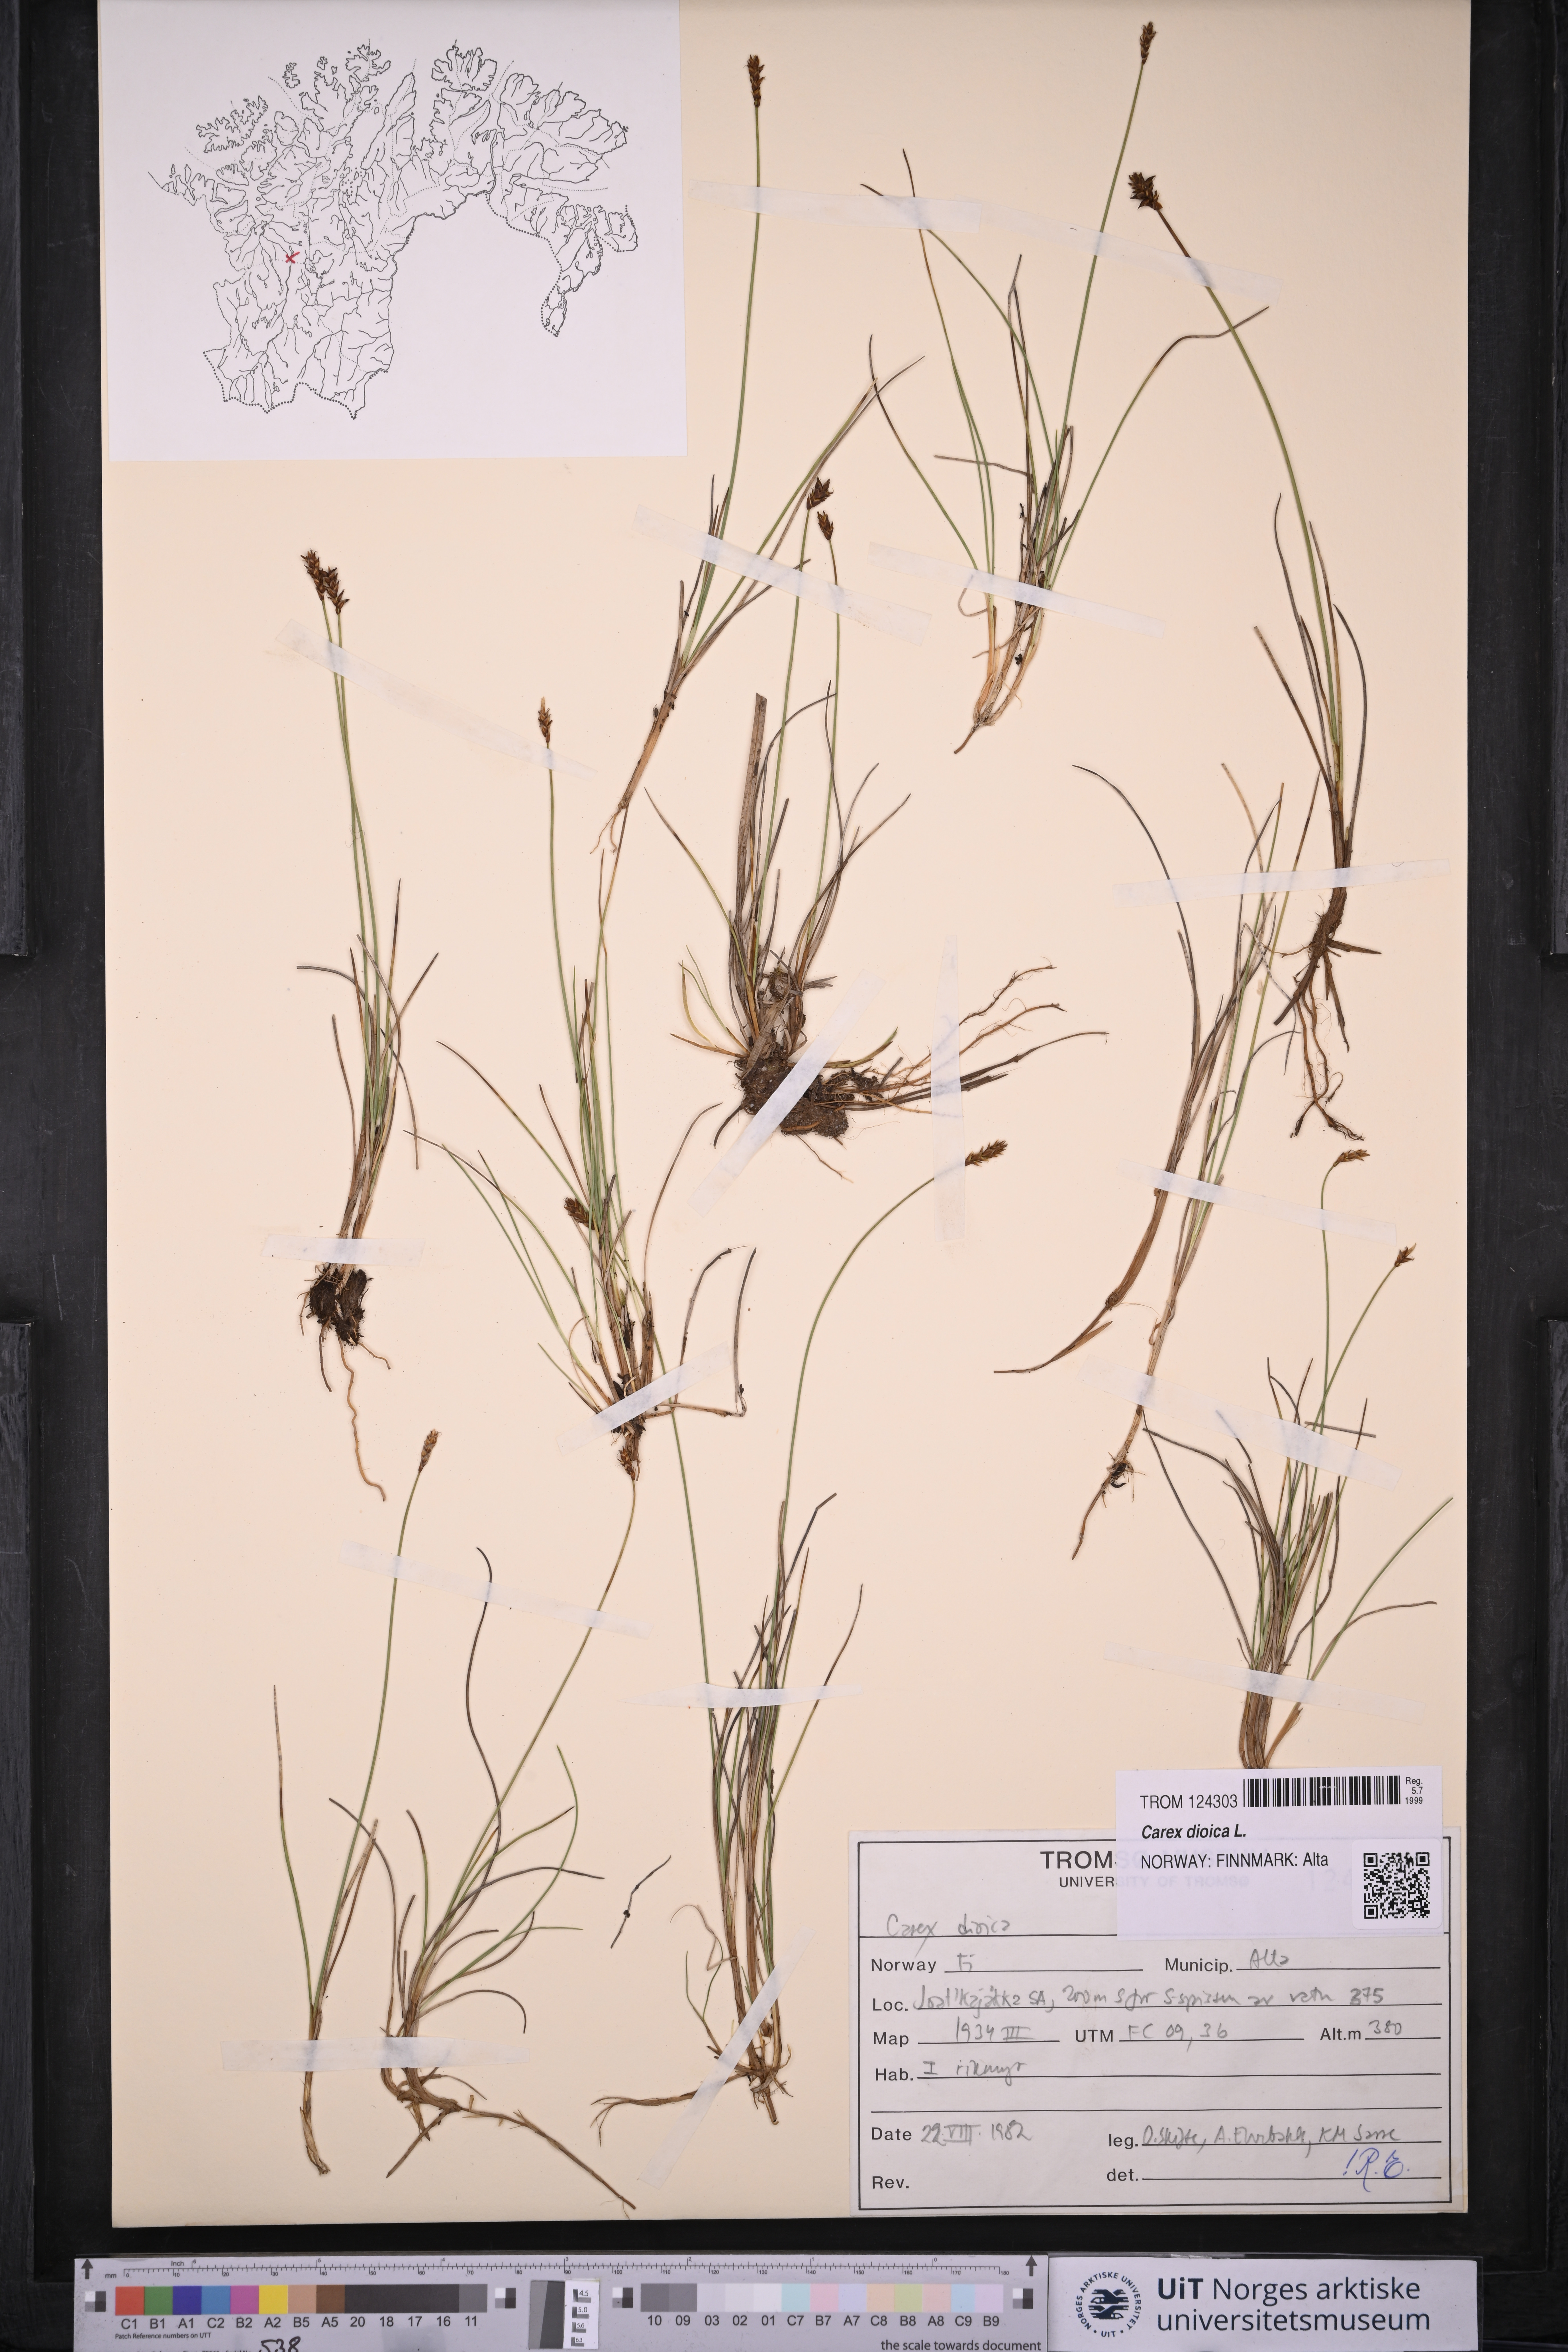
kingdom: Plantae
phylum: Tracheophyta
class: Liliopsida
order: Poales
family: Cyperaceae
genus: Carex
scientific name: Carex dioica
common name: Dioecious sedge
